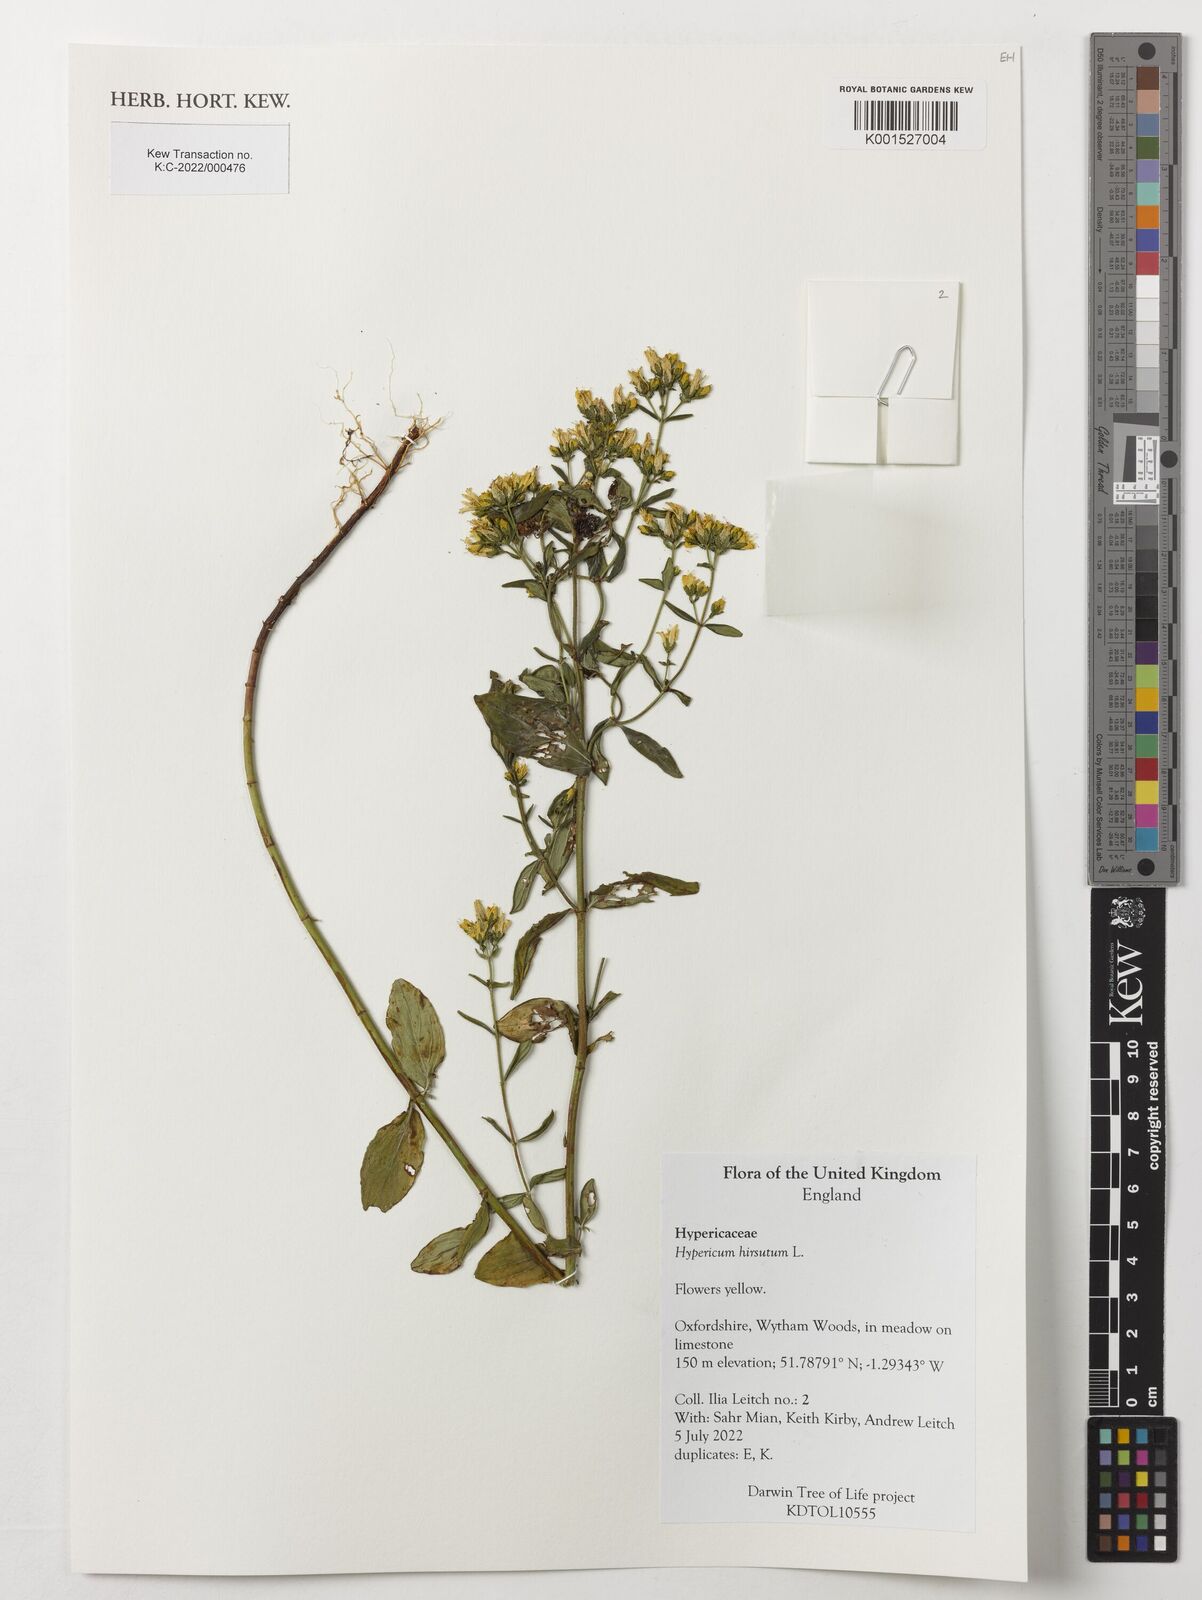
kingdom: Plantae
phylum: Tracheophyta
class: Magnoliopsida
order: Malpighiales
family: Hypericaceae
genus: Hypericum
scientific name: Hypericum hirsutum
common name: Hairy st. john's-wort
